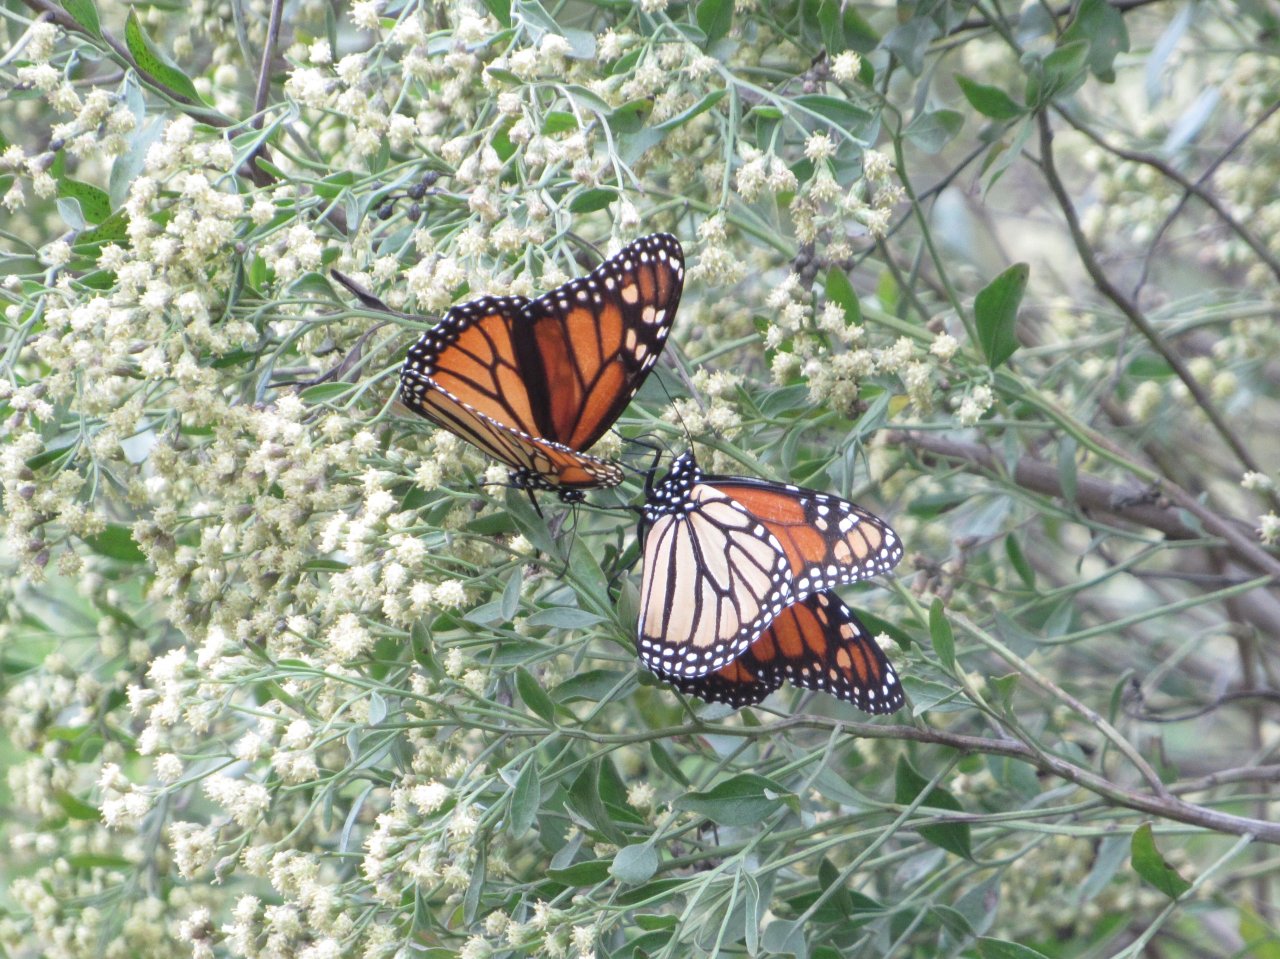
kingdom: Animalia
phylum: Arthropoda
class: Insecta
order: Lepidoptera
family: Nymphalidae
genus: Danaus
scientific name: Danaus plexippus
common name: Monarch
